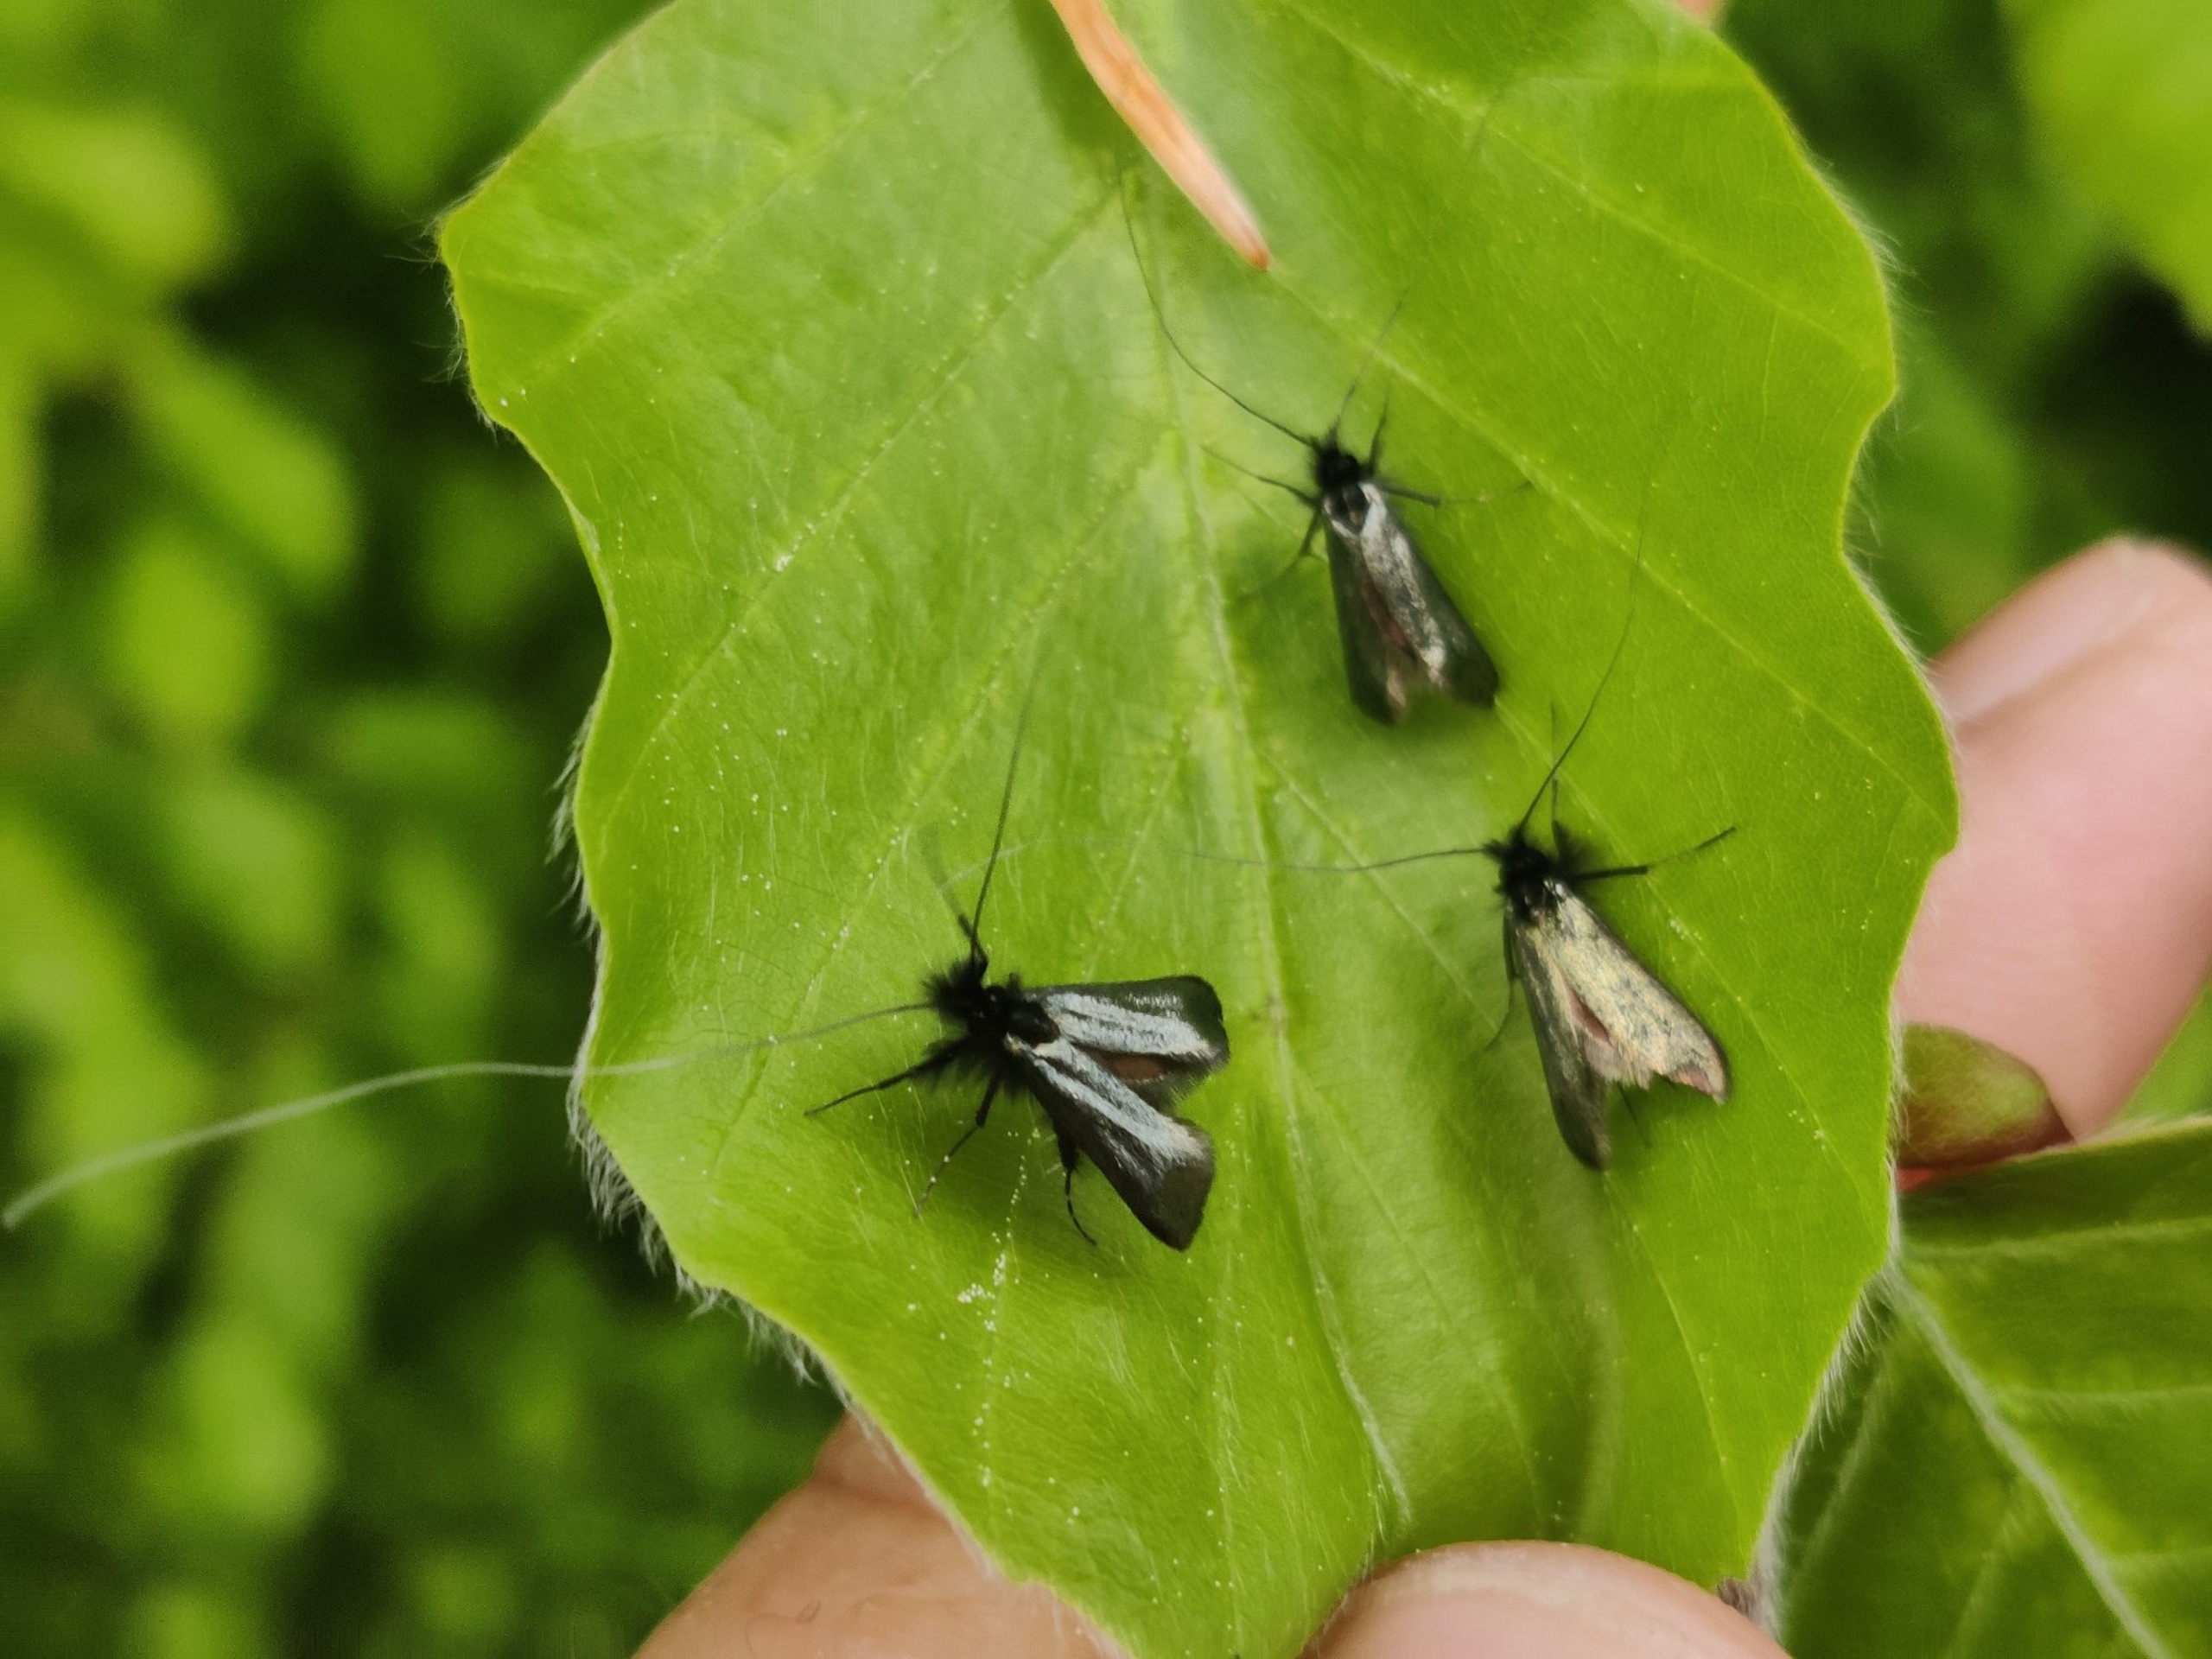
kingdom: Animalia
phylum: Arthropoda
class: Insecta
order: Lepidoptera
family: Adelidae
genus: Adela
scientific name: Adela viridella
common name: Egelanghornsmøl
